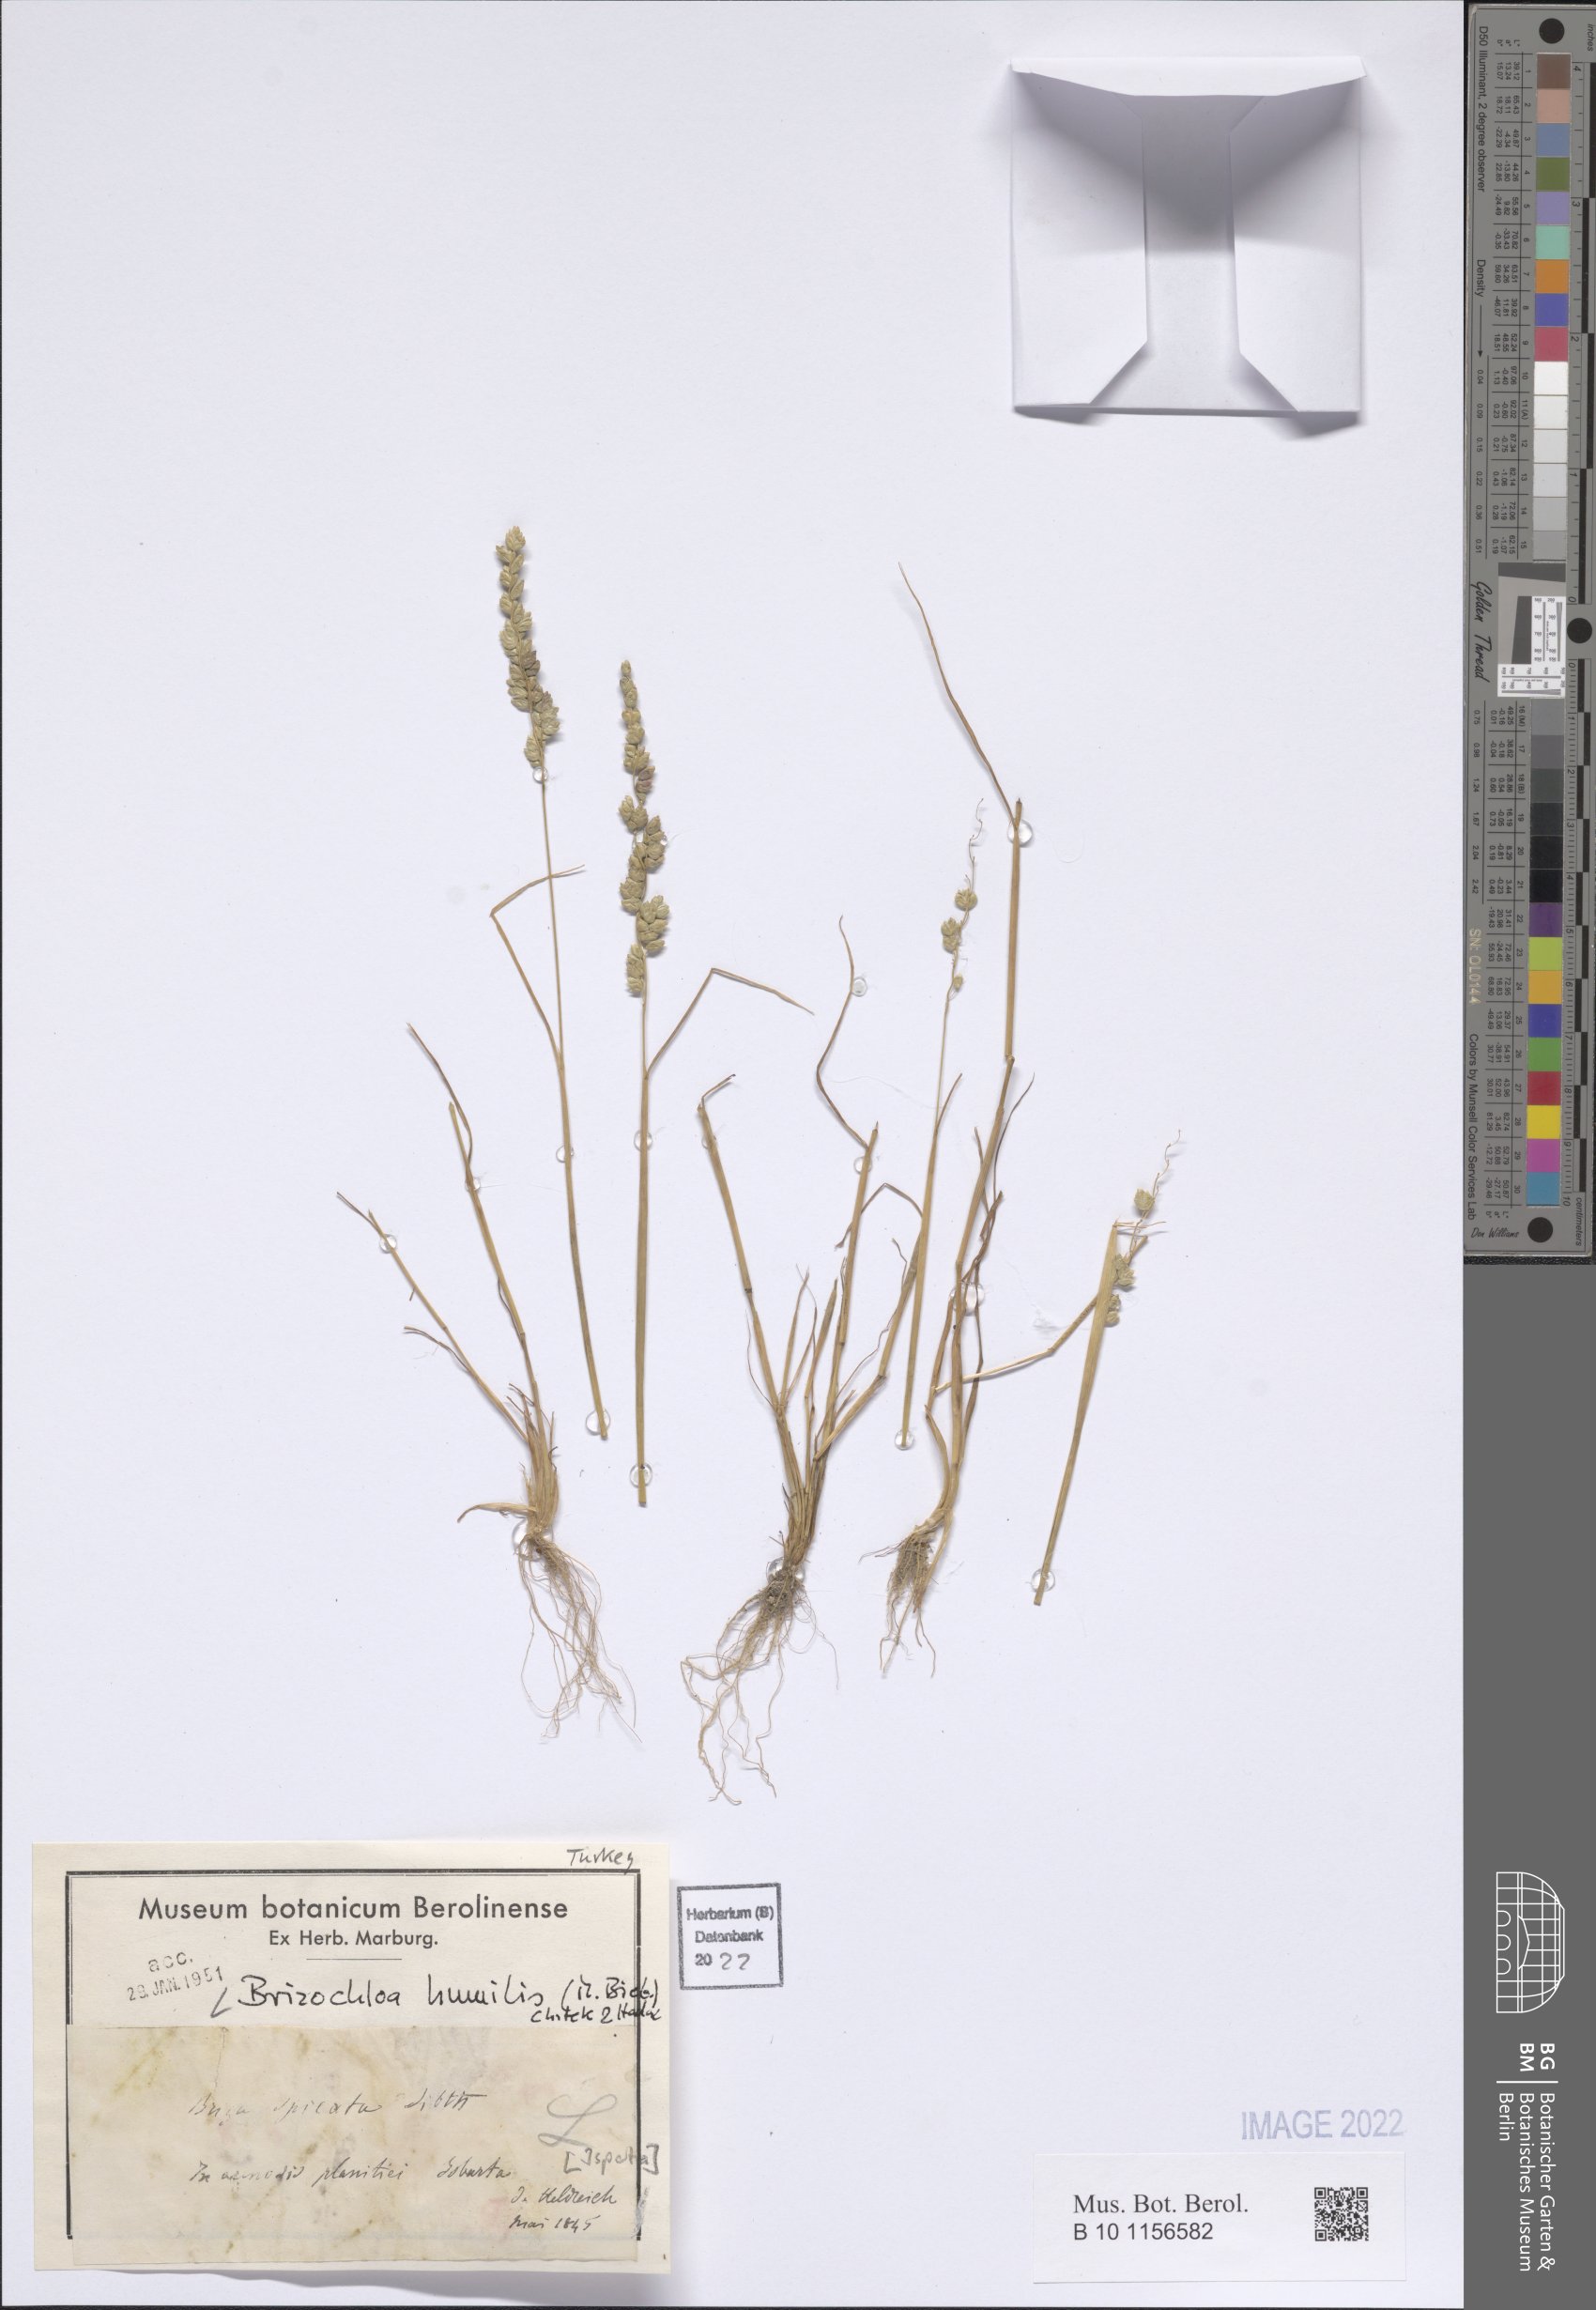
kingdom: Plantae
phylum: Tracheophyta
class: Liliopsida
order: Poales
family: Poaceae
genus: Briza
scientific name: Briza humilis
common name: Spiked quaking grass
